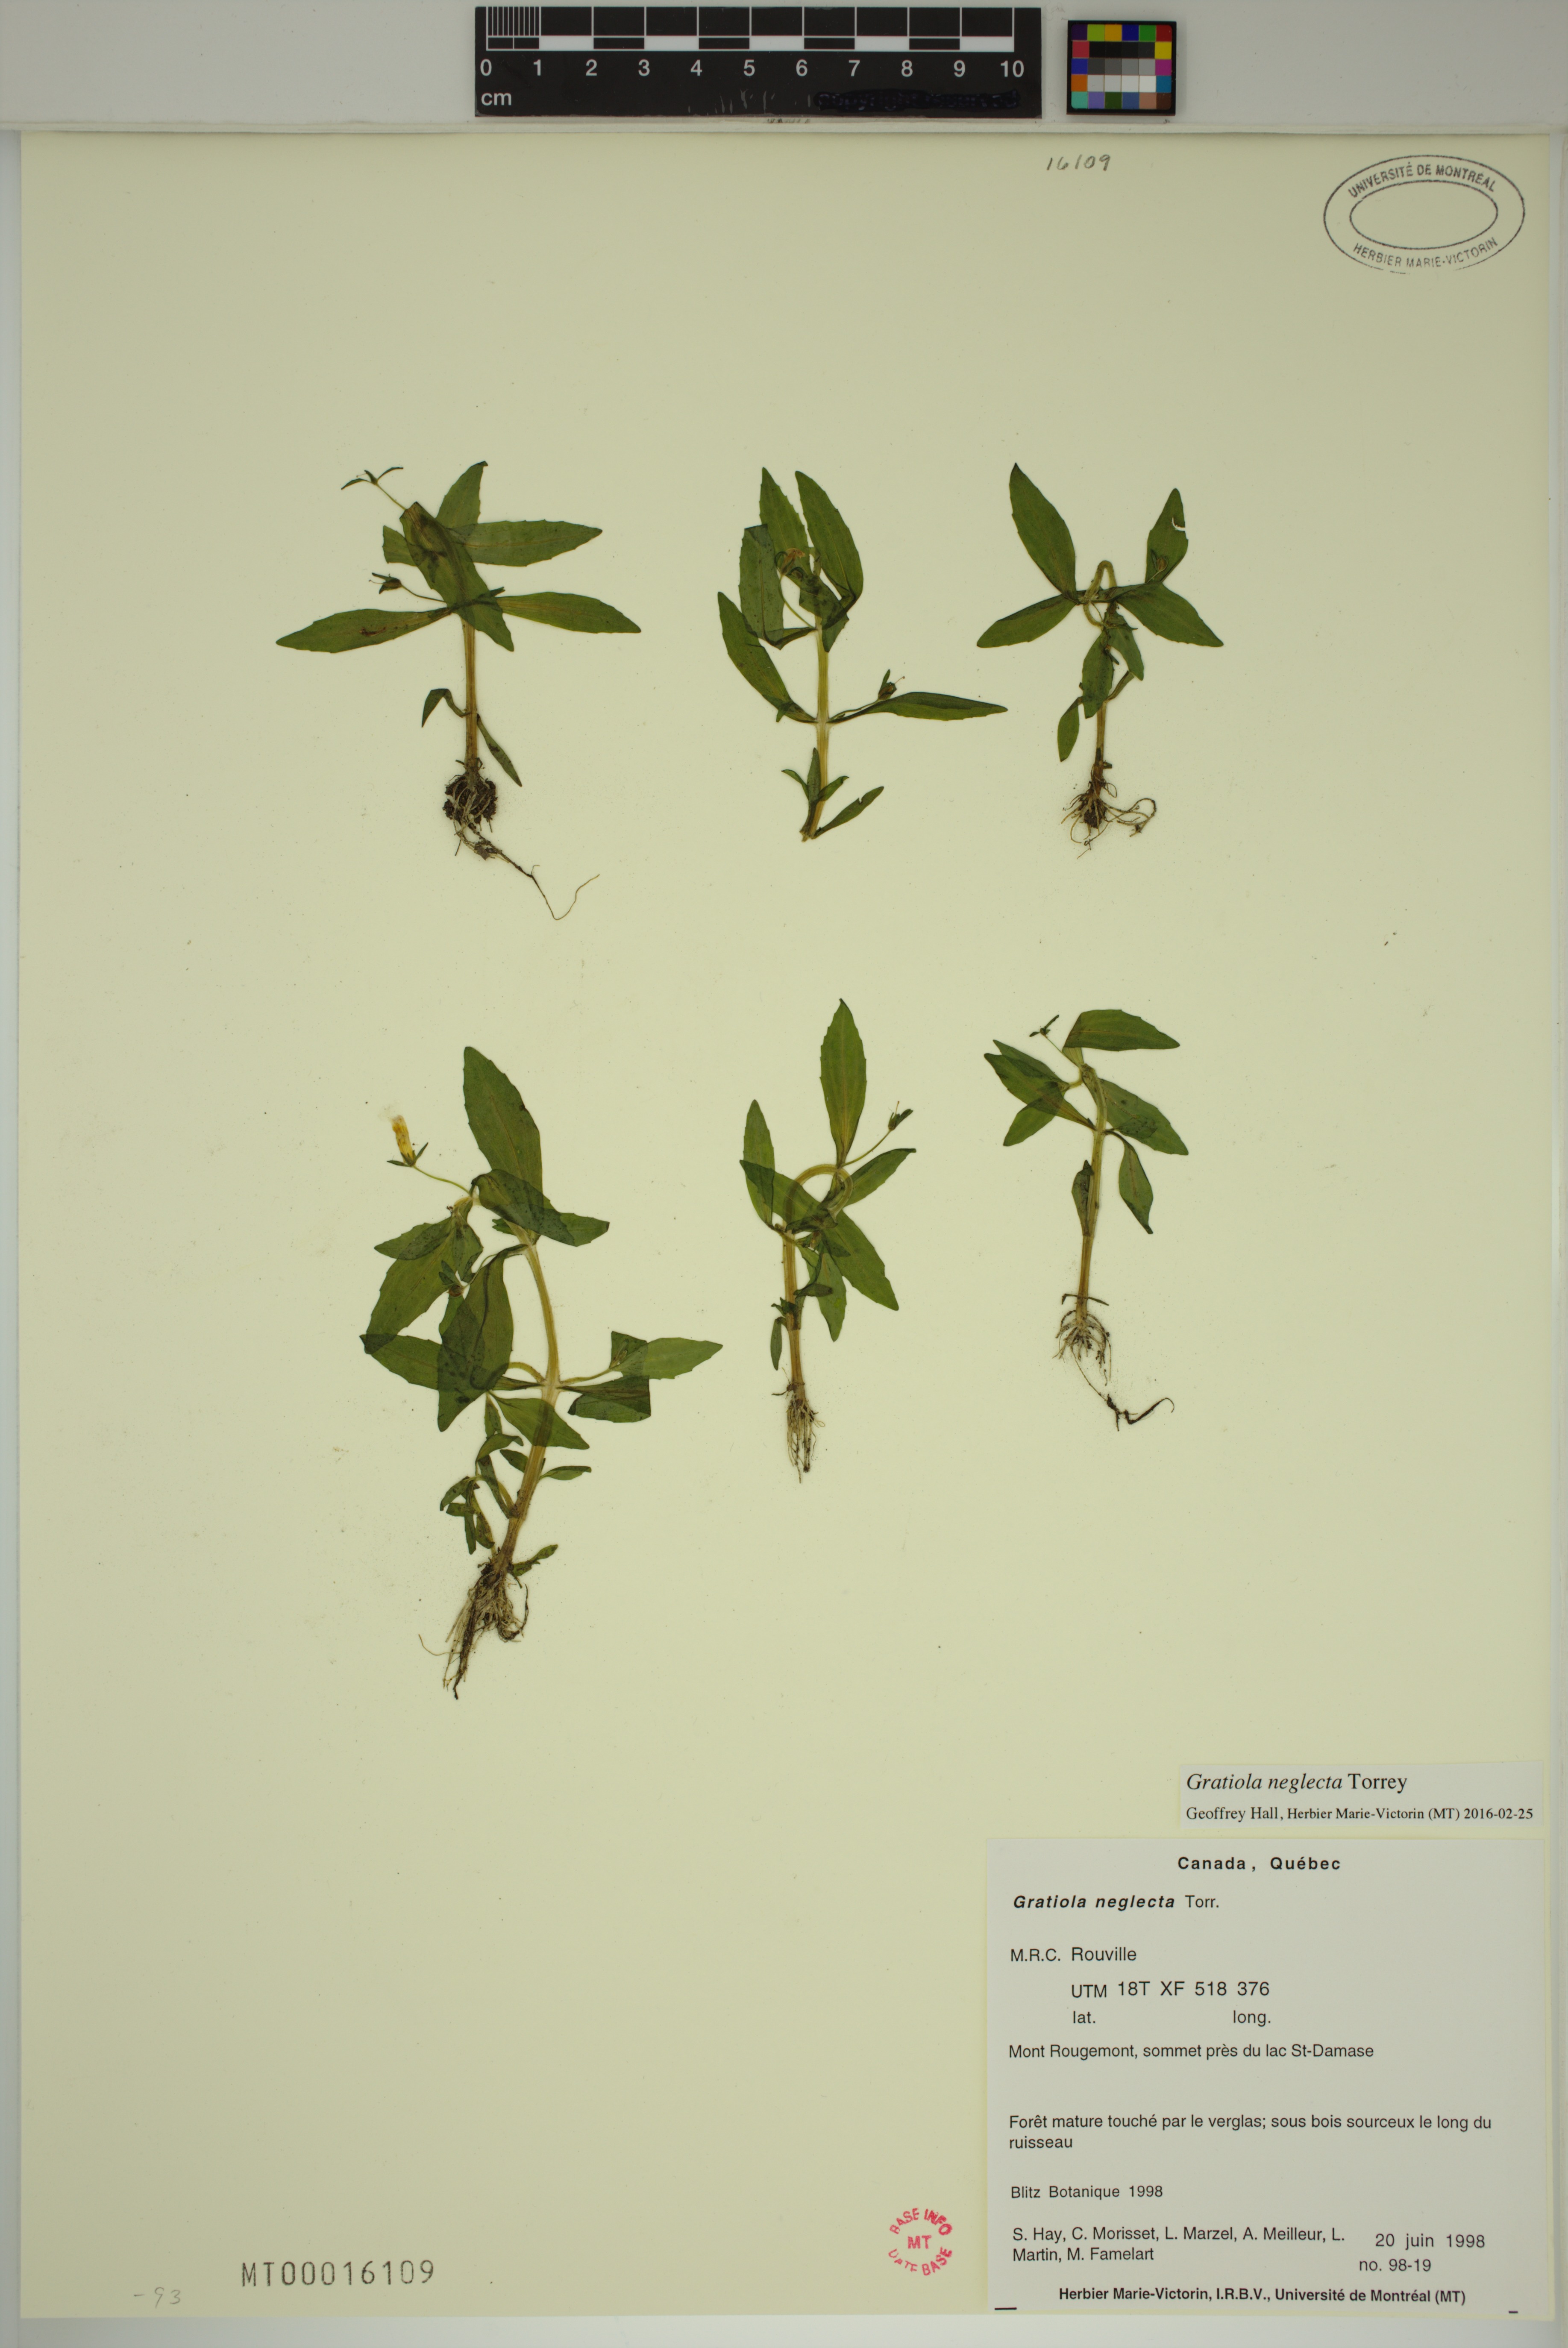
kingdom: Plantae
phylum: Tracheophyta
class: Magnoliopsida
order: Lamiales
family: Plantaginaceae
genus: Gratiola
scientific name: Gratiola neglecta
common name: American hedge-hyssop
